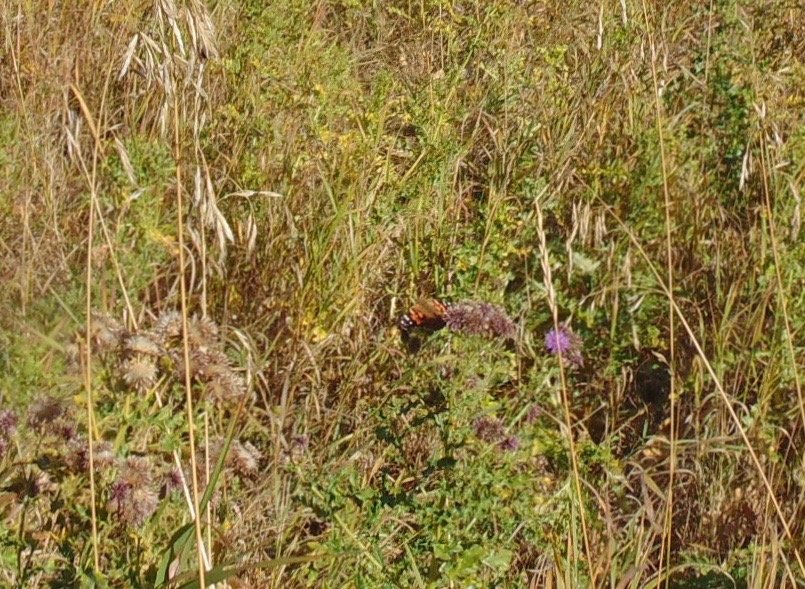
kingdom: Animalia
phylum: Arthropoda
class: Insecta
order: Lepidoptera
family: Nymphalidae
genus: Vanessa
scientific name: Vanessa cardui
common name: Painted Lady
